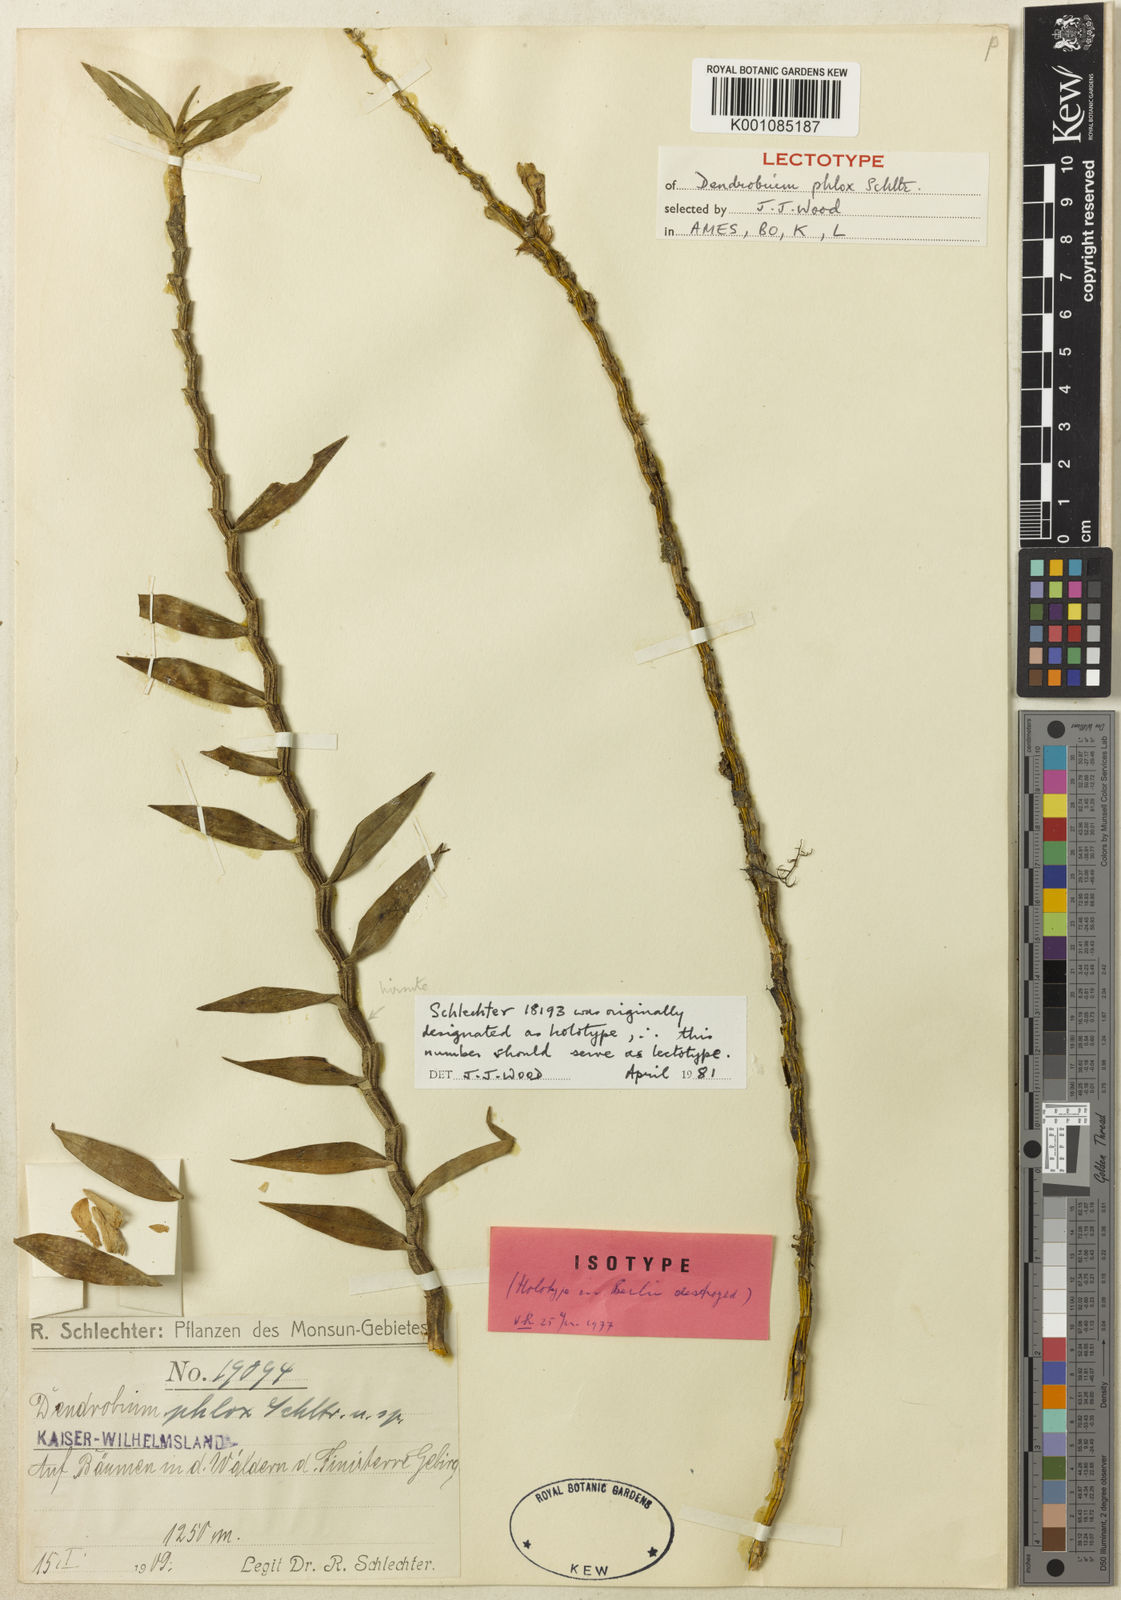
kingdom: Plantae
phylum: Tracheophyta
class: Liliopsida
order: Asparagales
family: Orchidaceae
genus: Dendrobium
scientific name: Dendrobium subclausum
